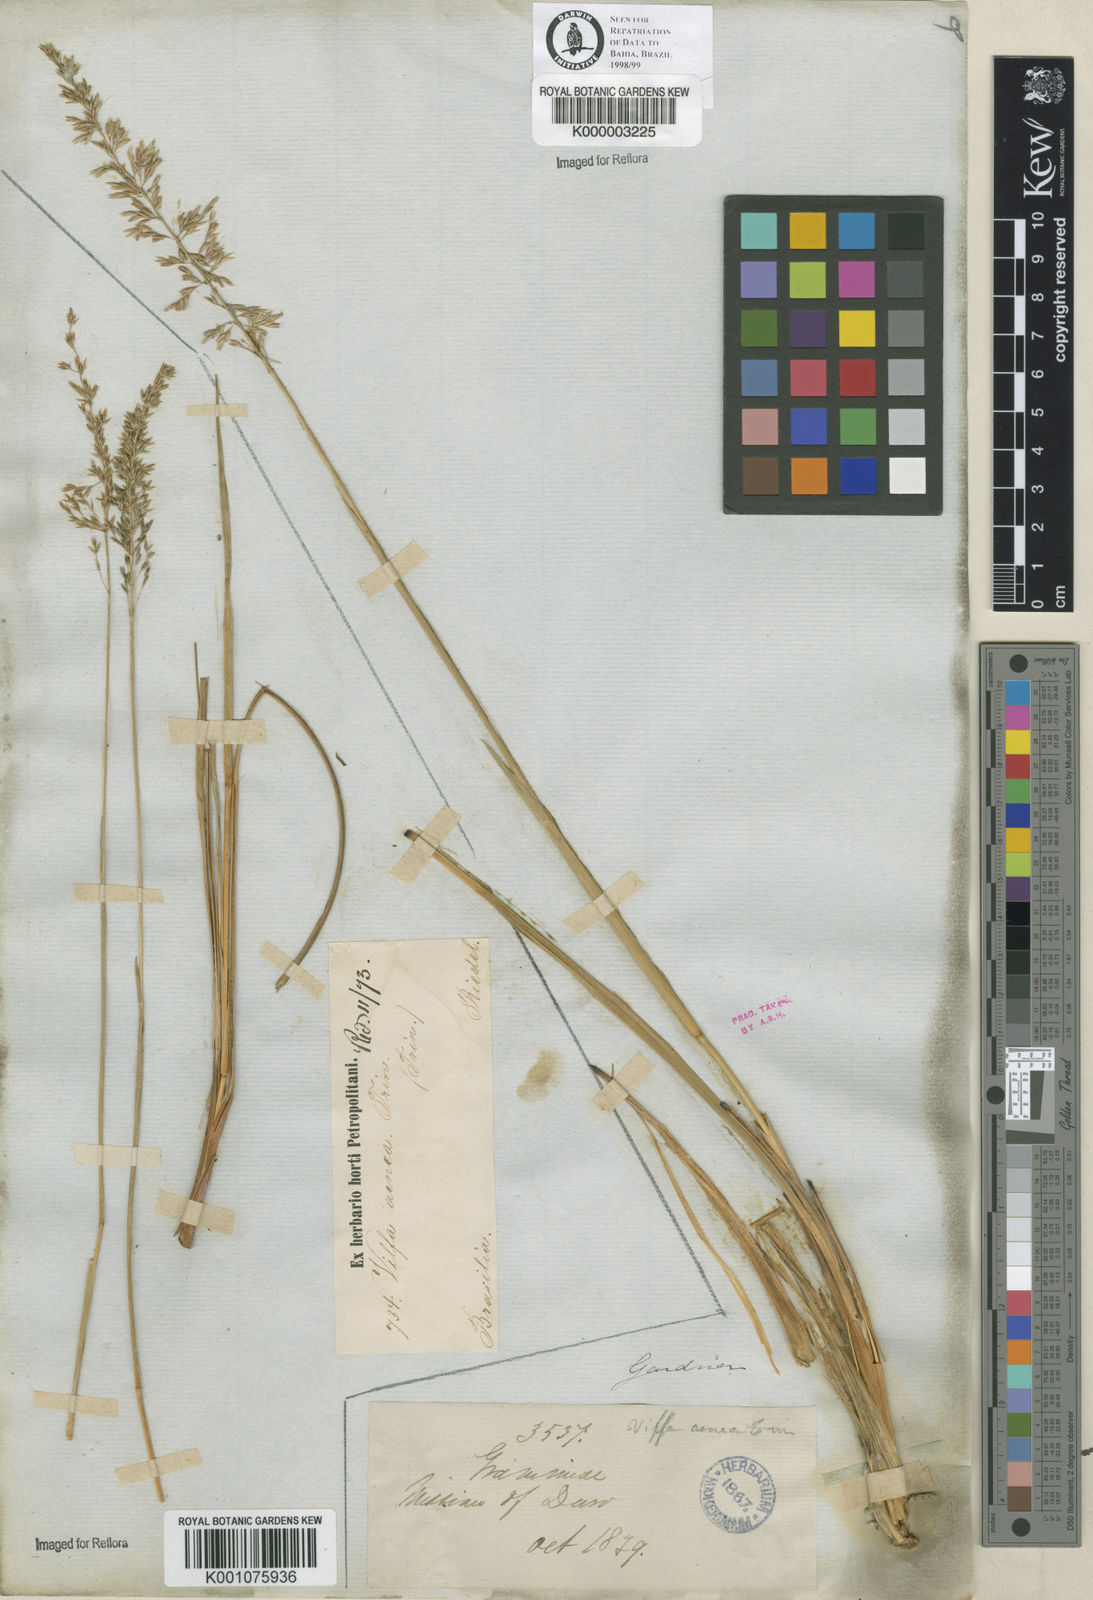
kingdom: Plantae
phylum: Tracheophyta
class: Liliopsida
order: Poales
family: Poaceae
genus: Sporobolus
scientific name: Sporobolus cubensis
